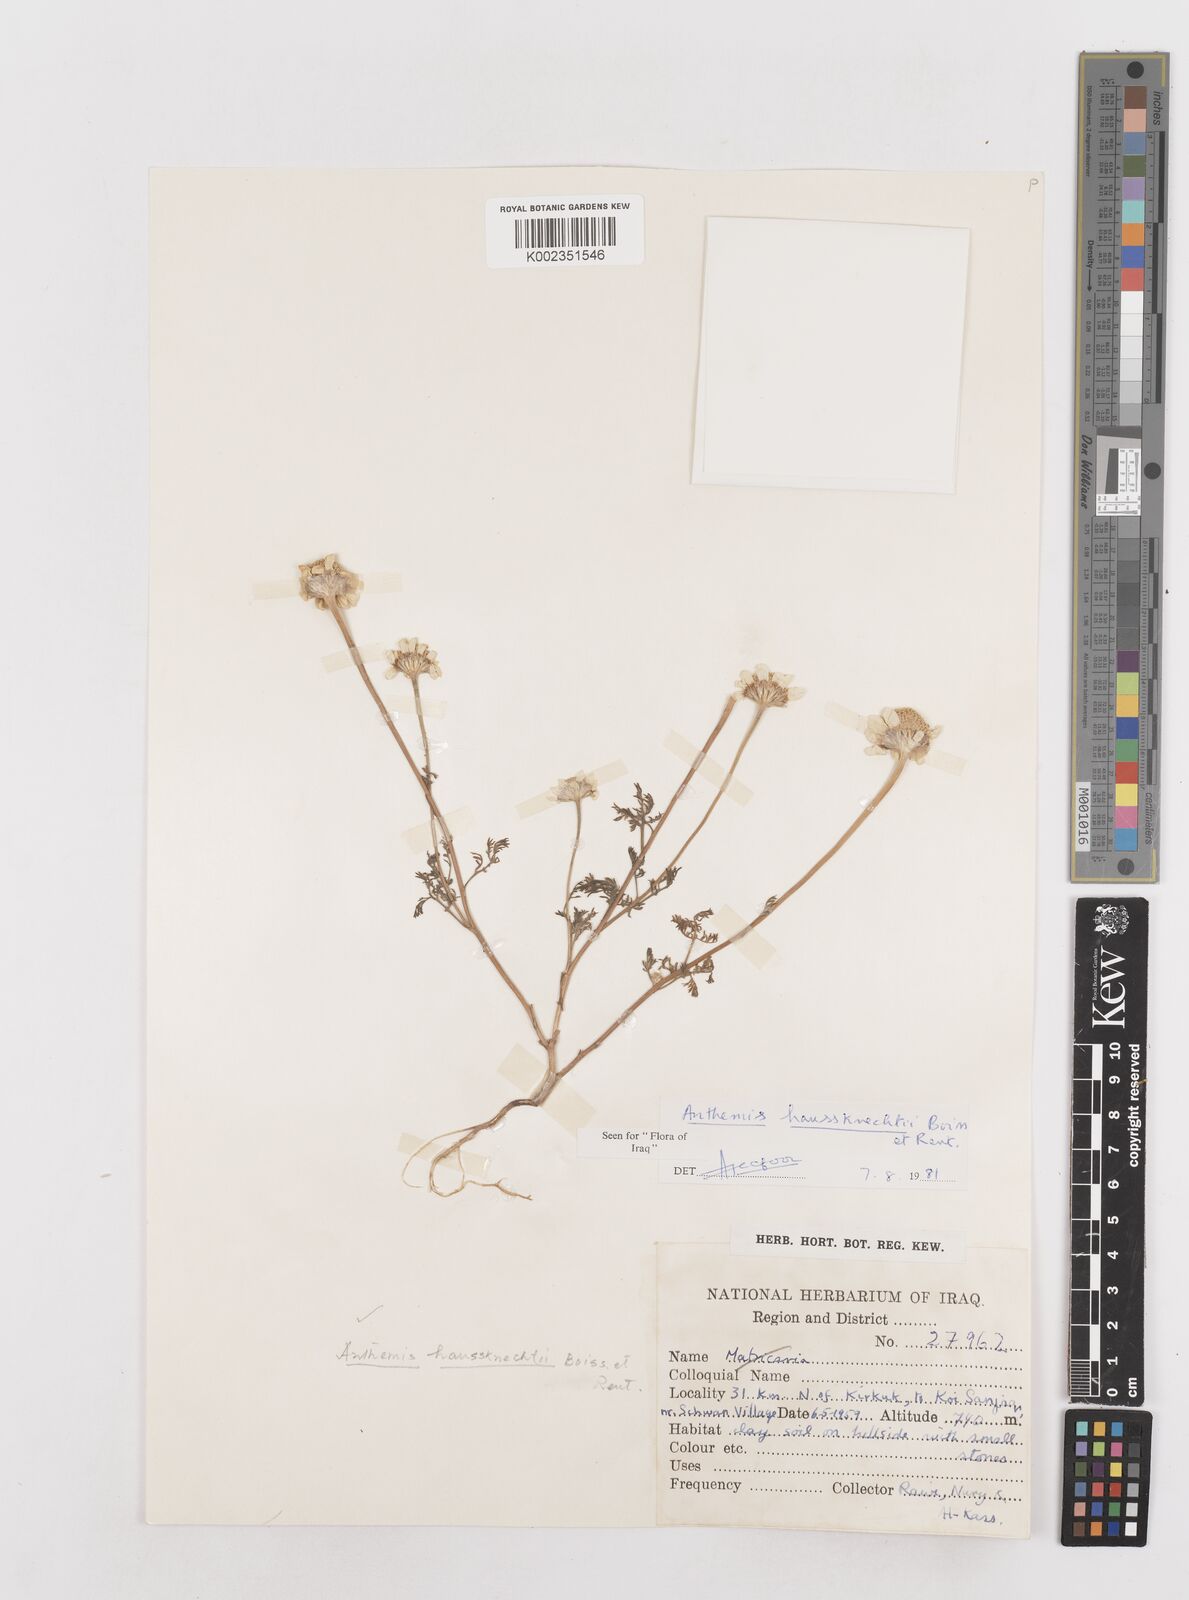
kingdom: Plantae
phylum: Tracheophyta
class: Magnoliopsida
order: Asterales
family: Asteraceae
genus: Anthemis
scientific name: Anthemis haussknechtii
